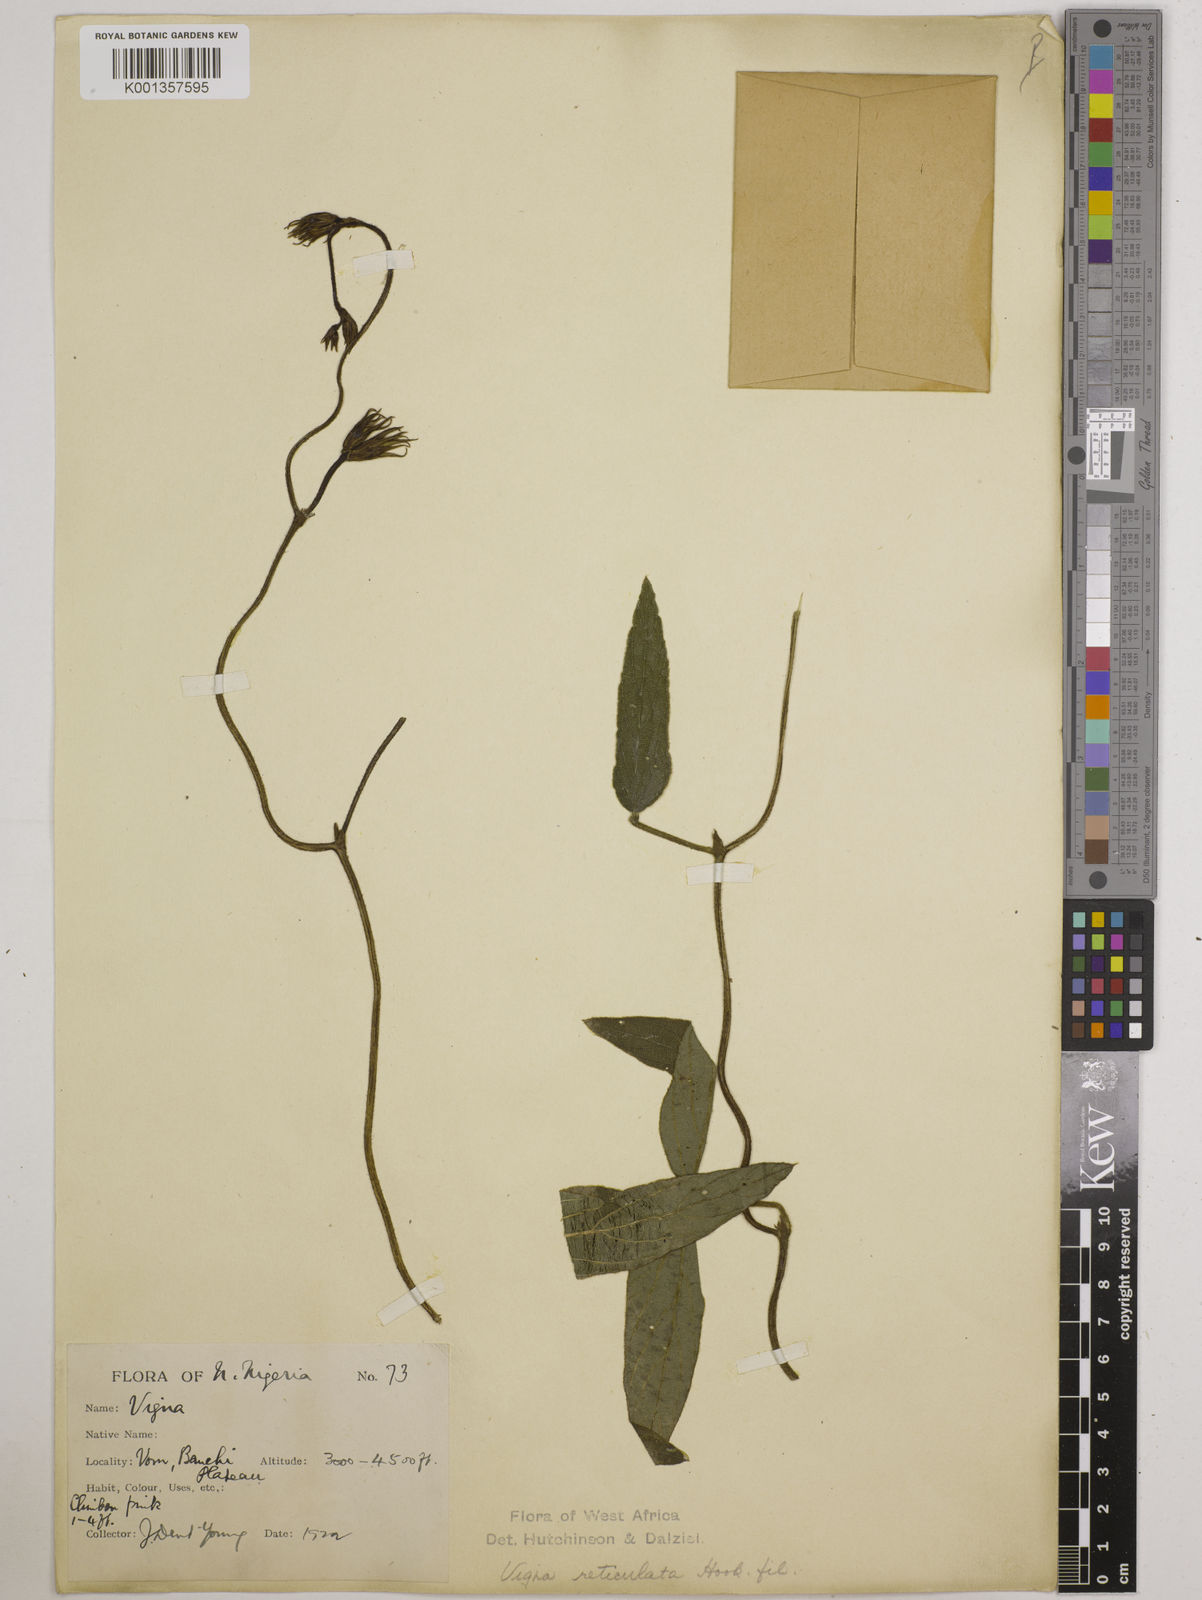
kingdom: Plantae
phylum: Tracheophyta
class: Magnoliopsida
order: Fabales
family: Fabaceae
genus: Vigna
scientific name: Vigna reticulata
